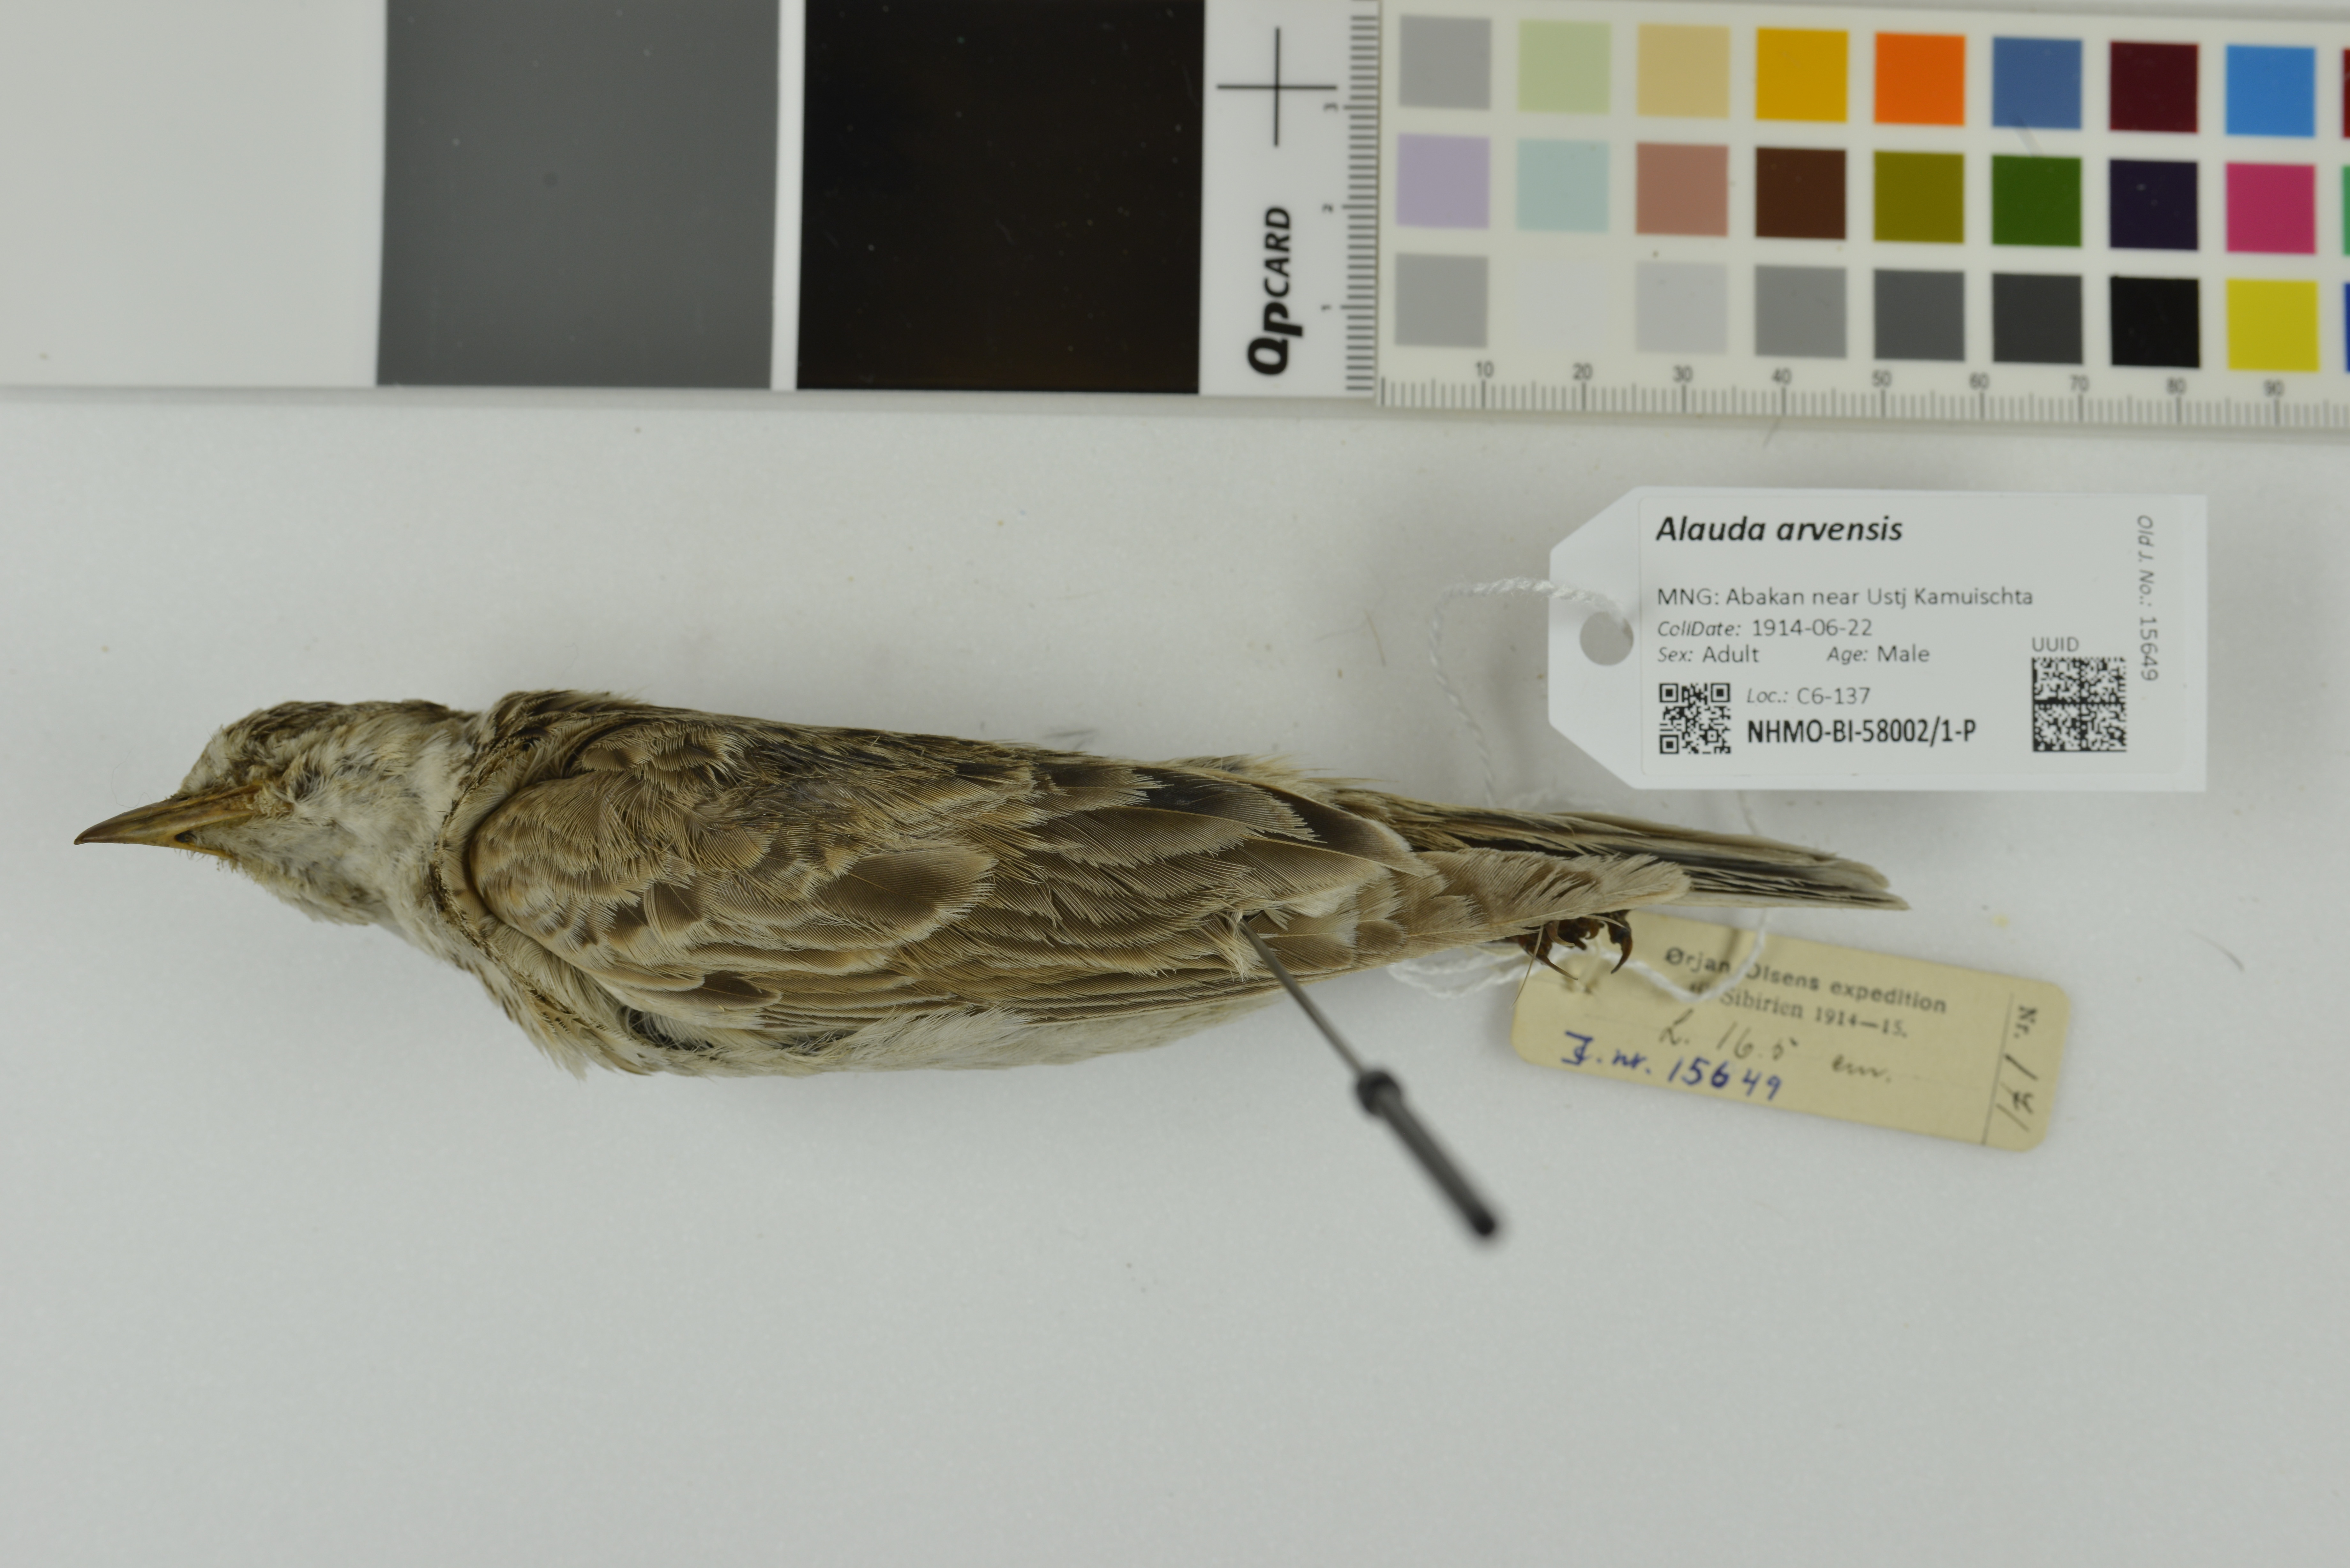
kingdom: Animalia
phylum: Chordata
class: Aves
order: Passeriformes
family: Alaudidae
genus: Alauda
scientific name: Alauda arvensis
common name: Eurasian skylark
